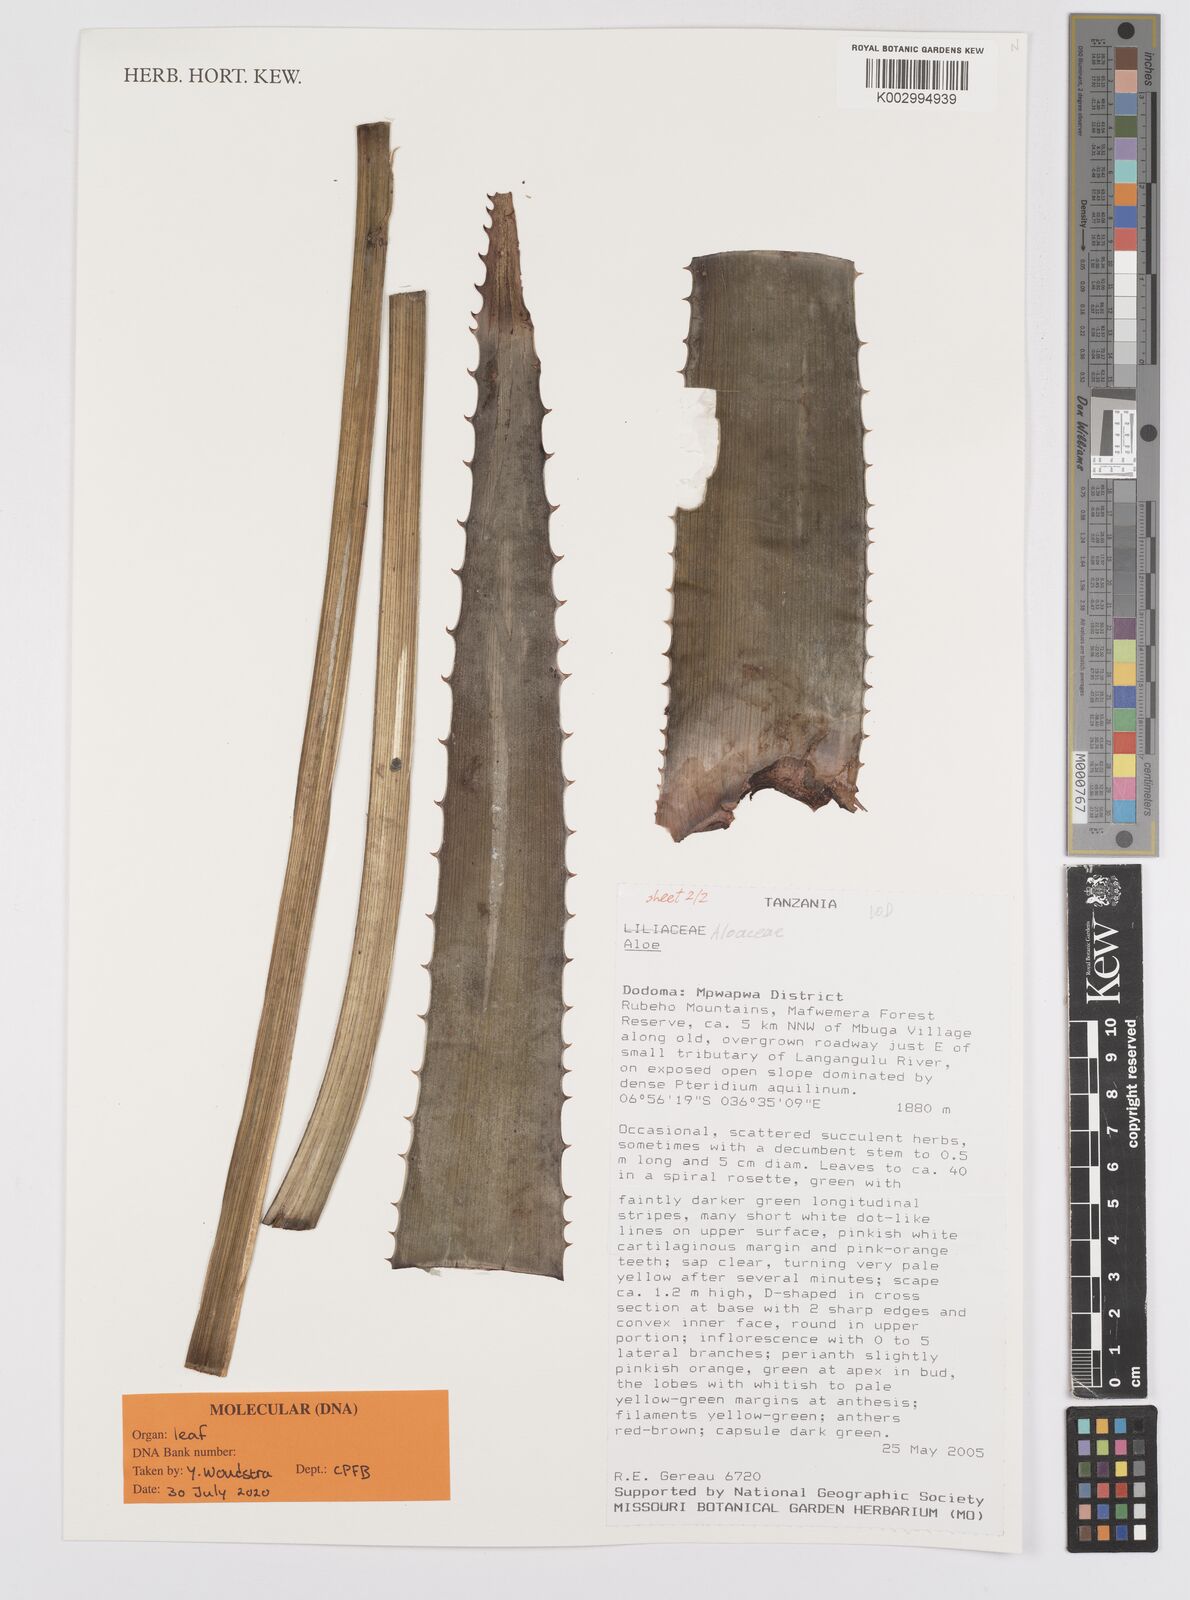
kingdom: Plantae
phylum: Tracheophyta
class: Liliopsida
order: Asparagales
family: Asphodelaceae
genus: Aloe
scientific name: Aloe
